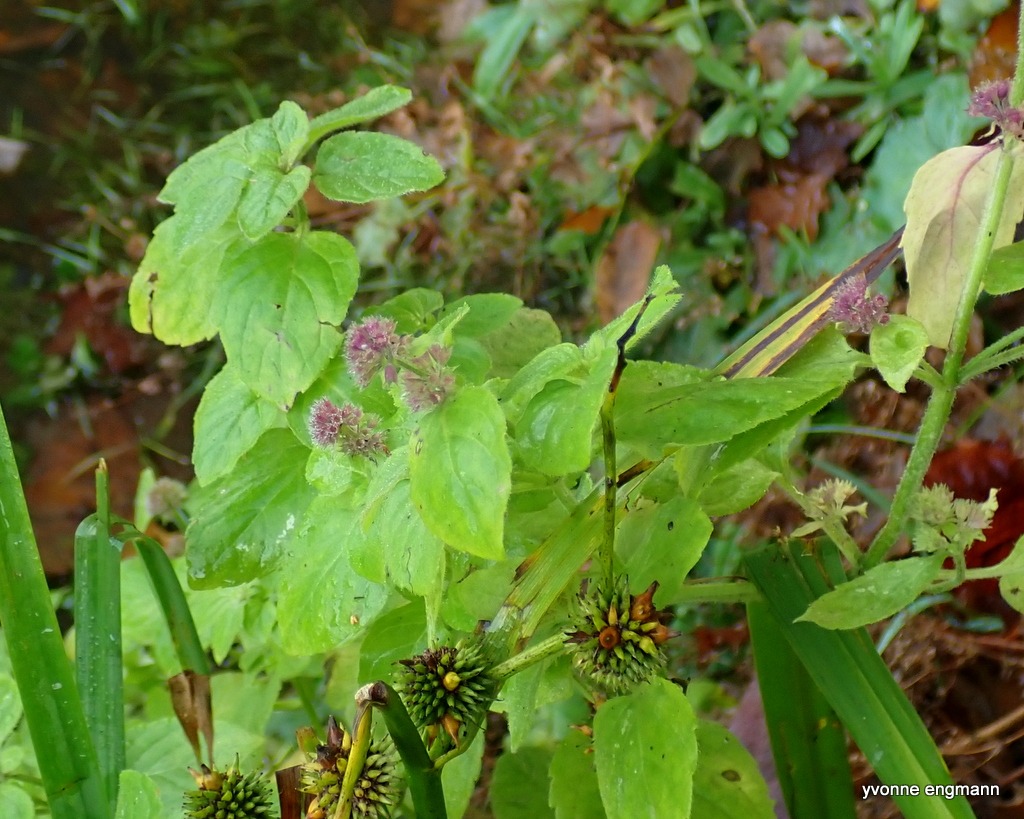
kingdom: Plantae
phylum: Tracheophyta
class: Magnoliopsida
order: Lamiales
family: Lamiaceae
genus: Mentha
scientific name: Mentha aquatica
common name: Vand-mynte
